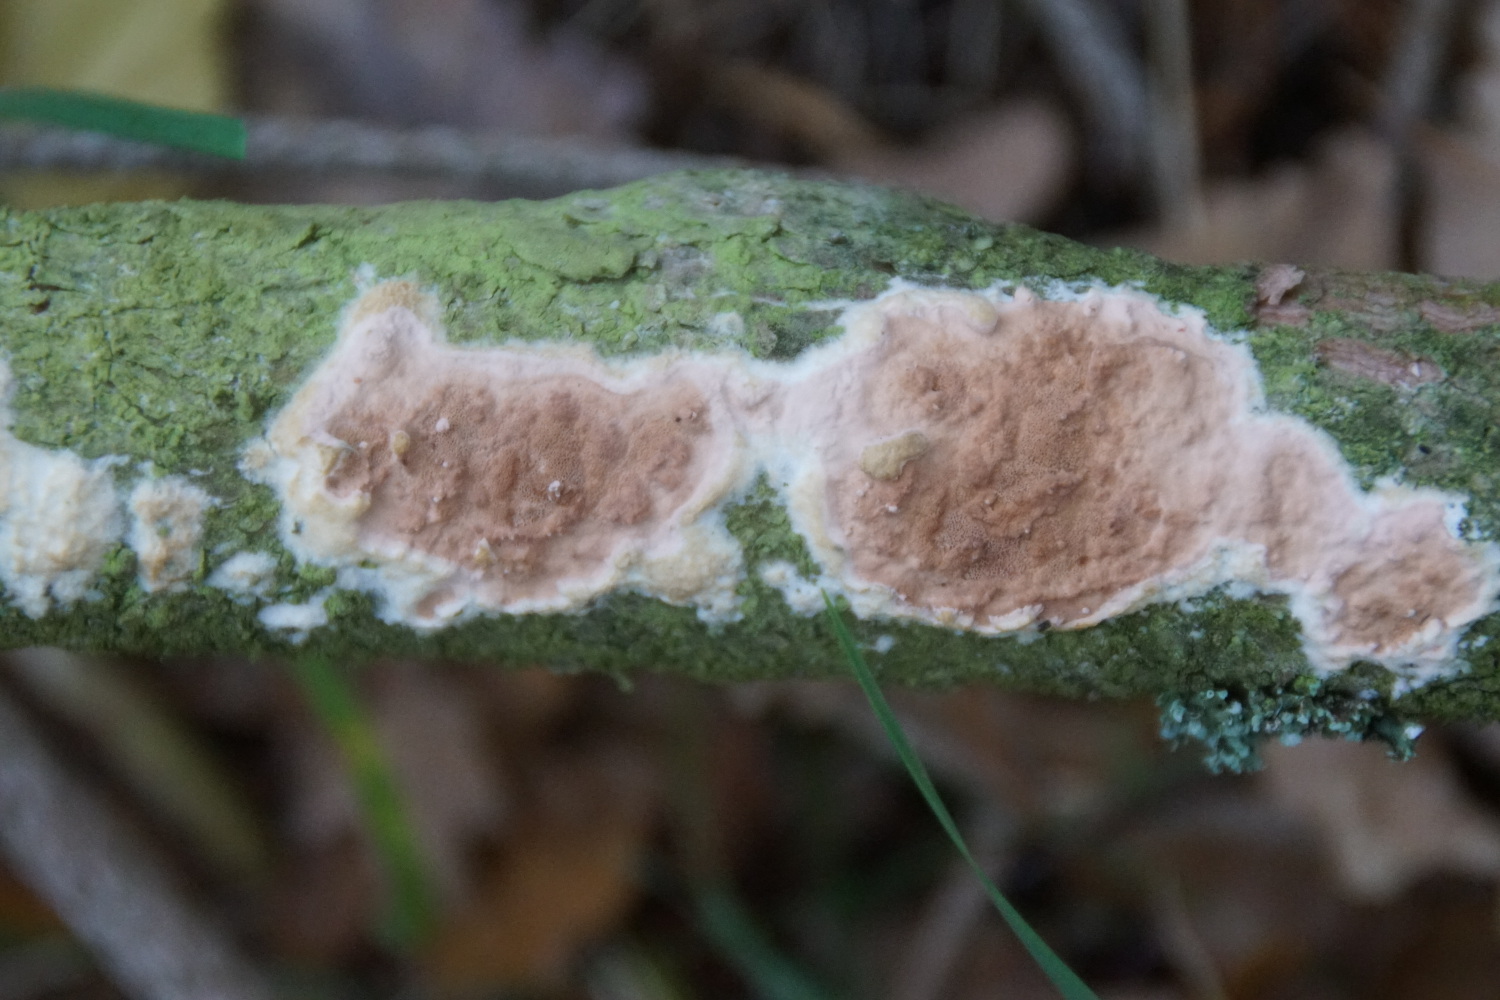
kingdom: Fungi
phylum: Basidiomycota
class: Agaricomycetes
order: Polyporales
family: Irpicaceae
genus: Meruliopsis
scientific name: Meruliopsis taxicola
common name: purpurbrun foldporesvamp
